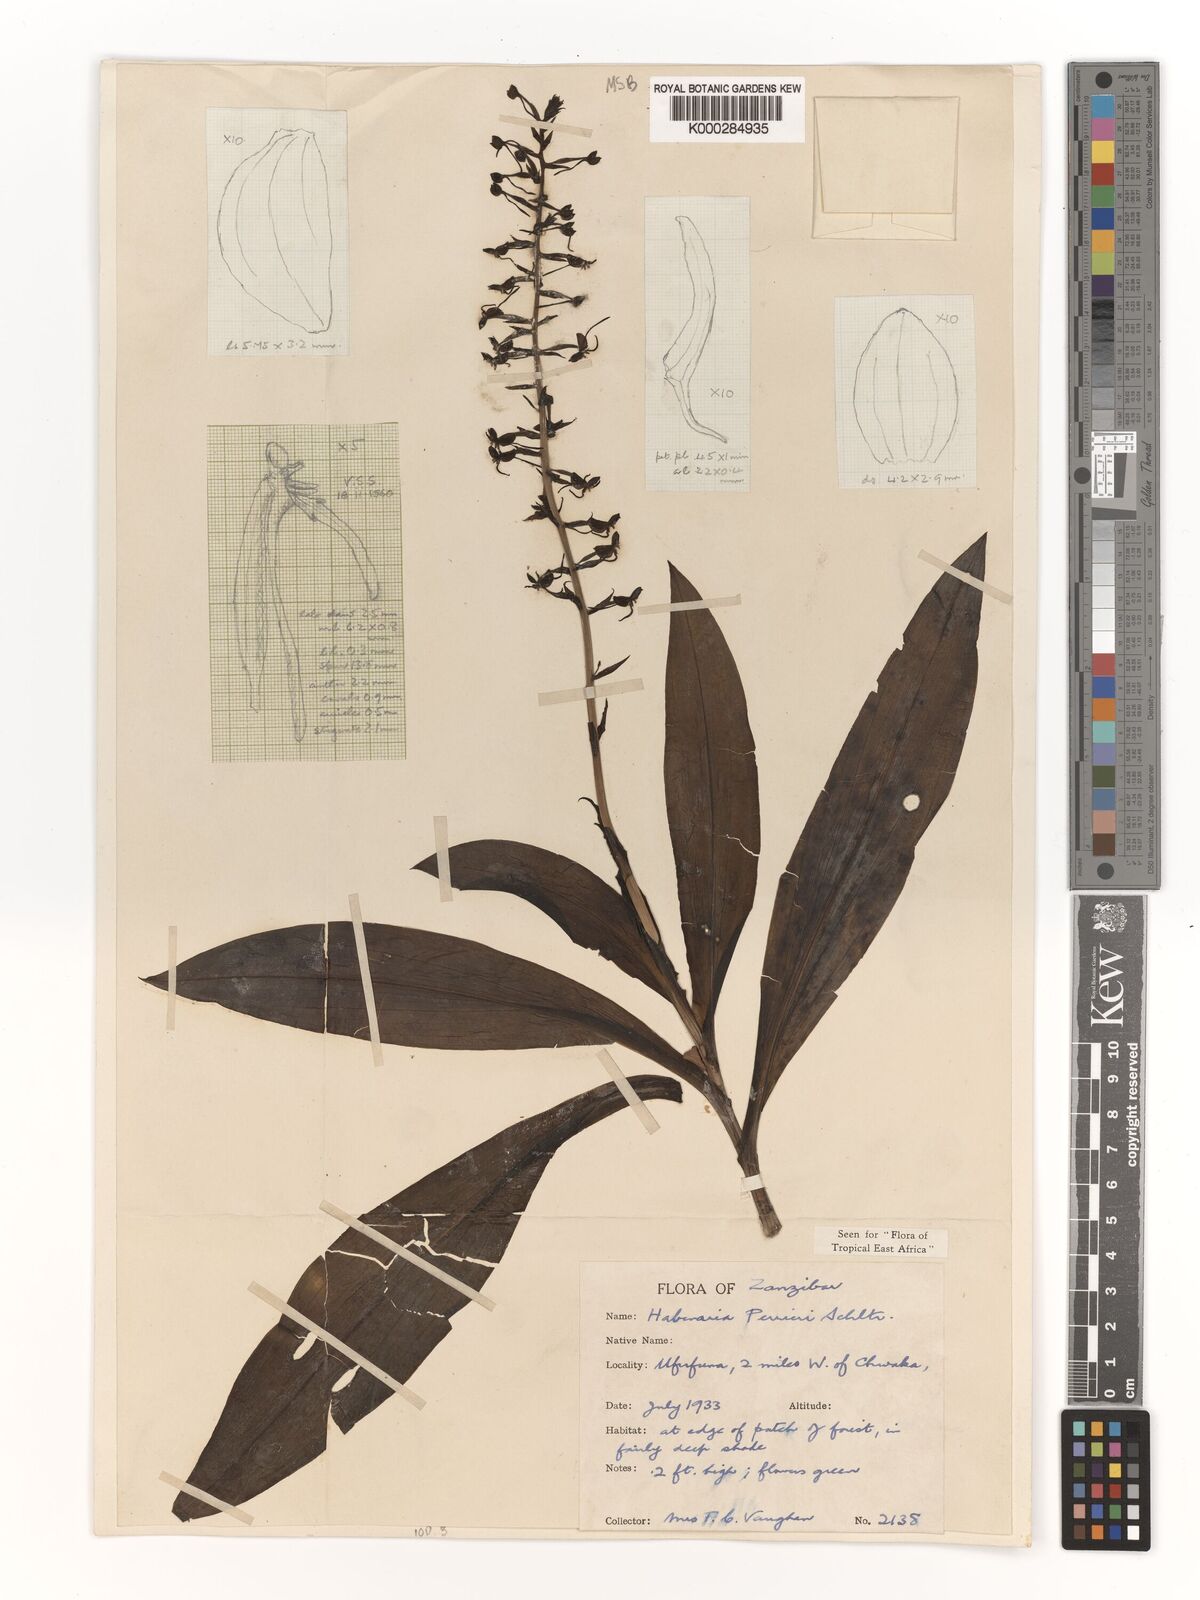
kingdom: Plantae
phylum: Tracheophyta
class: Liliopsida
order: Asparagales
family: Orchidaceae
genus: Habenaria
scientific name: Habenaria boiviniana
